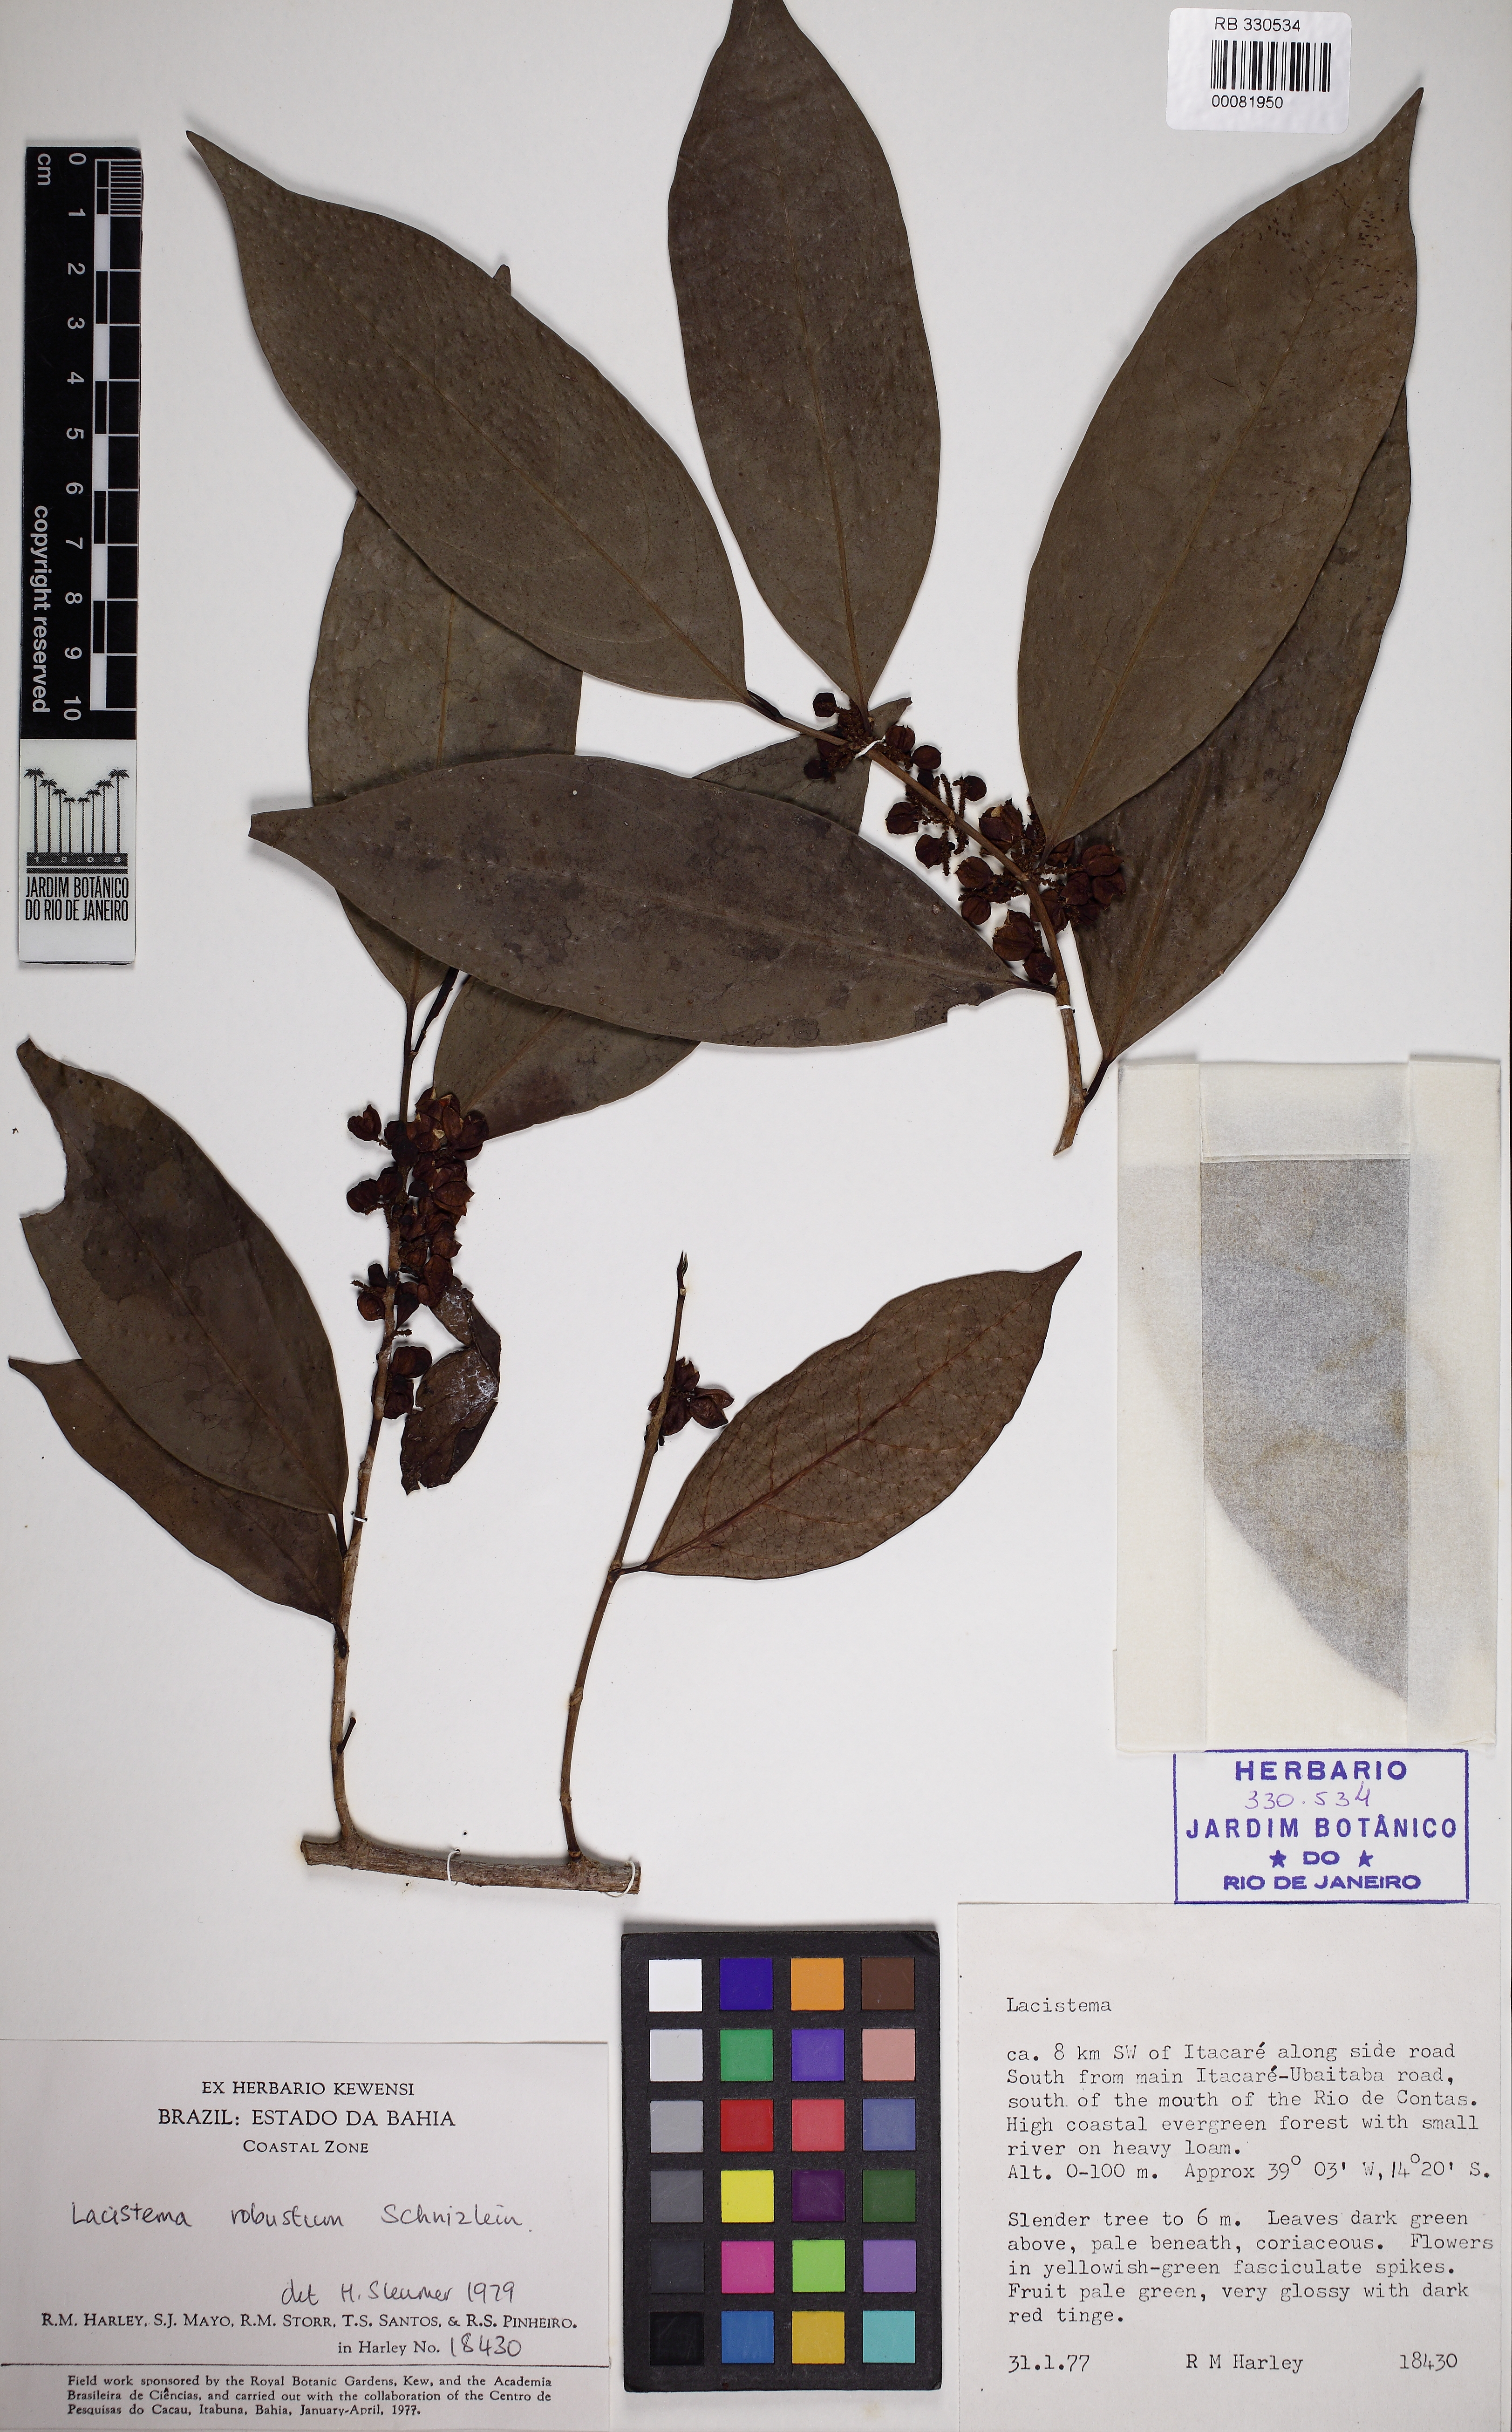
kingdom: Plantae
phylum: Tracheophyta
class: Magnoliopsida
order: Malpighiales
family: Lacistemataceae
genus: Lacistema
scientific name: Lacistema robustum
